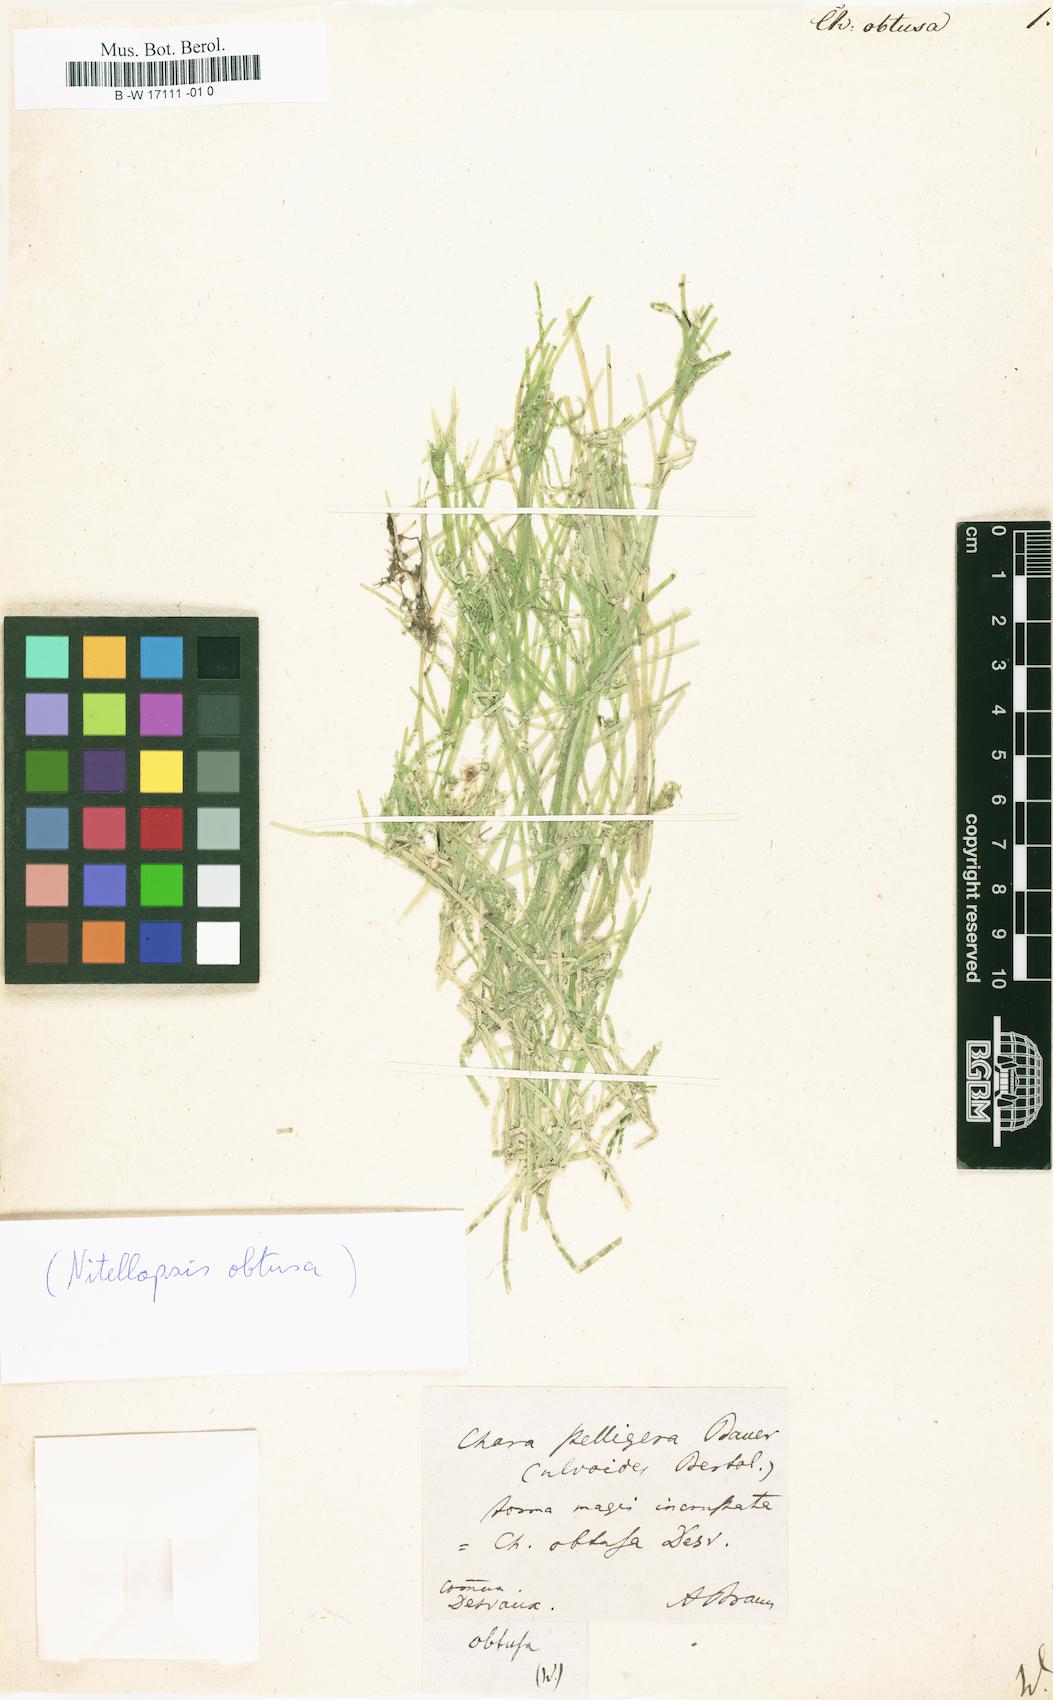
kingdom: Plantae
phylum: Charophyta
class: Charophyceae
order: Charales
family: Characeae
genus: Nitellopsis
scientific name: Nitellopsis obtusa
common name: Starry stonewort
